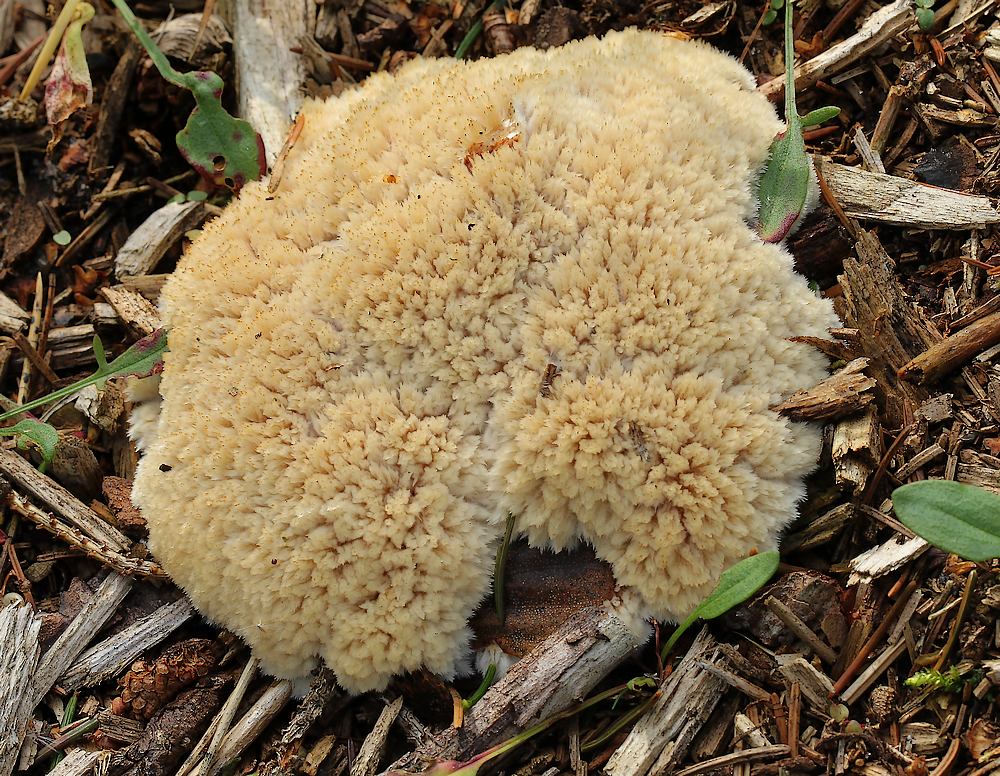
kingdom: Fungi
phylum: Basidiomycota
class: Agaricomycetes
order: Polyporales
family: Dacryobolaceae
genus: Postia
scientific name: Postia ptychogaster
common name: støvende kødporesvamp
